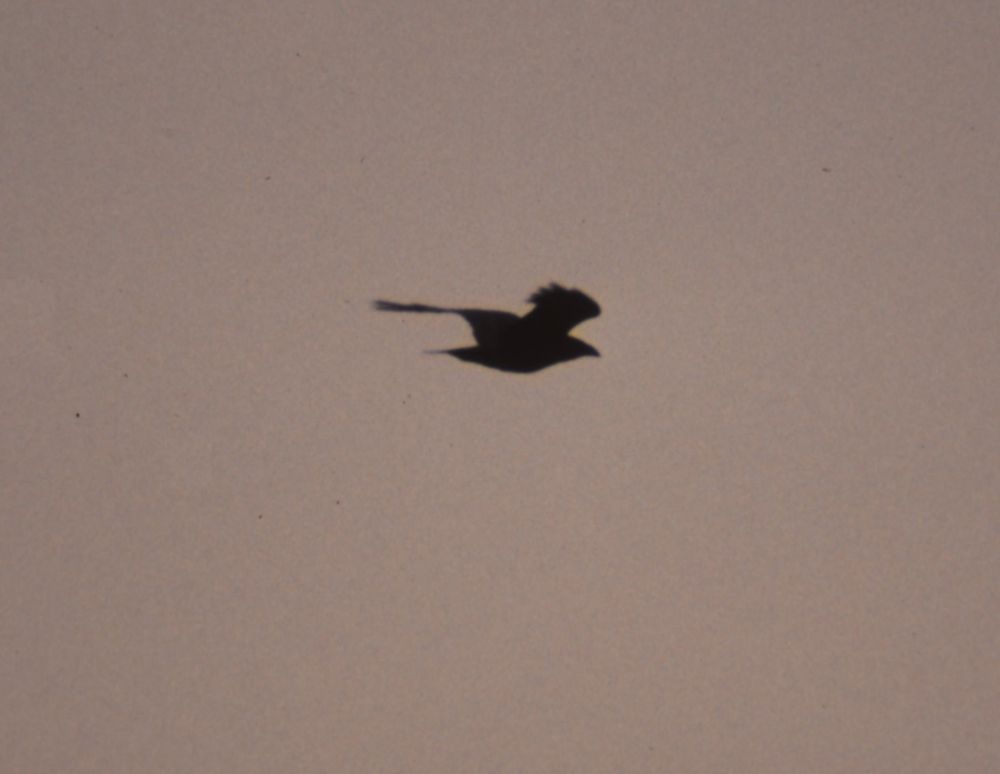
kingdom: Animalia
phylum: Chordata
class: Aves
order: Passeriformes
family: Corvidae
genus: Corvus
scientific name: Corvus corax
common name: Common raven
